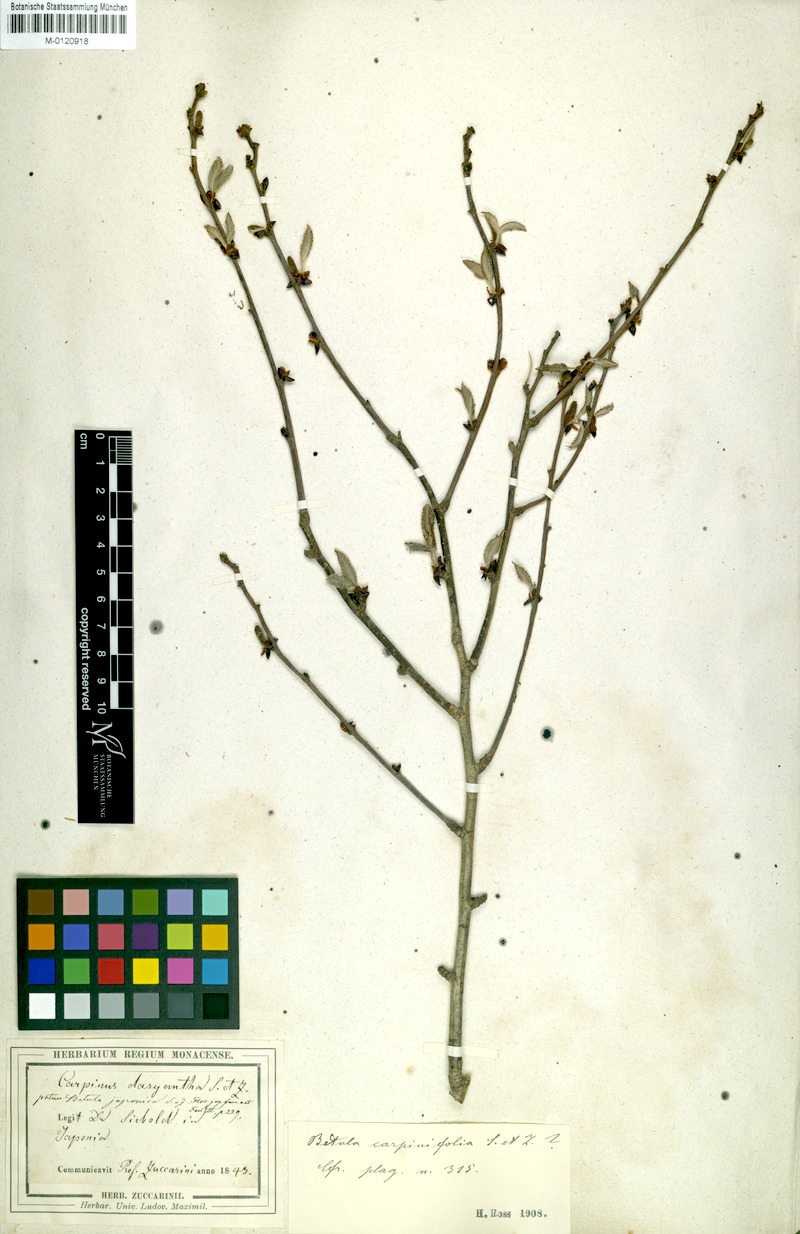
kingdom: Plantae
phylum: Tracheophyta
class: Magnoliopsida
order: Fagales
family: Betulaceae
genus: Betula
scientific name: Betula grossa
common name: Japanese cherry birch
